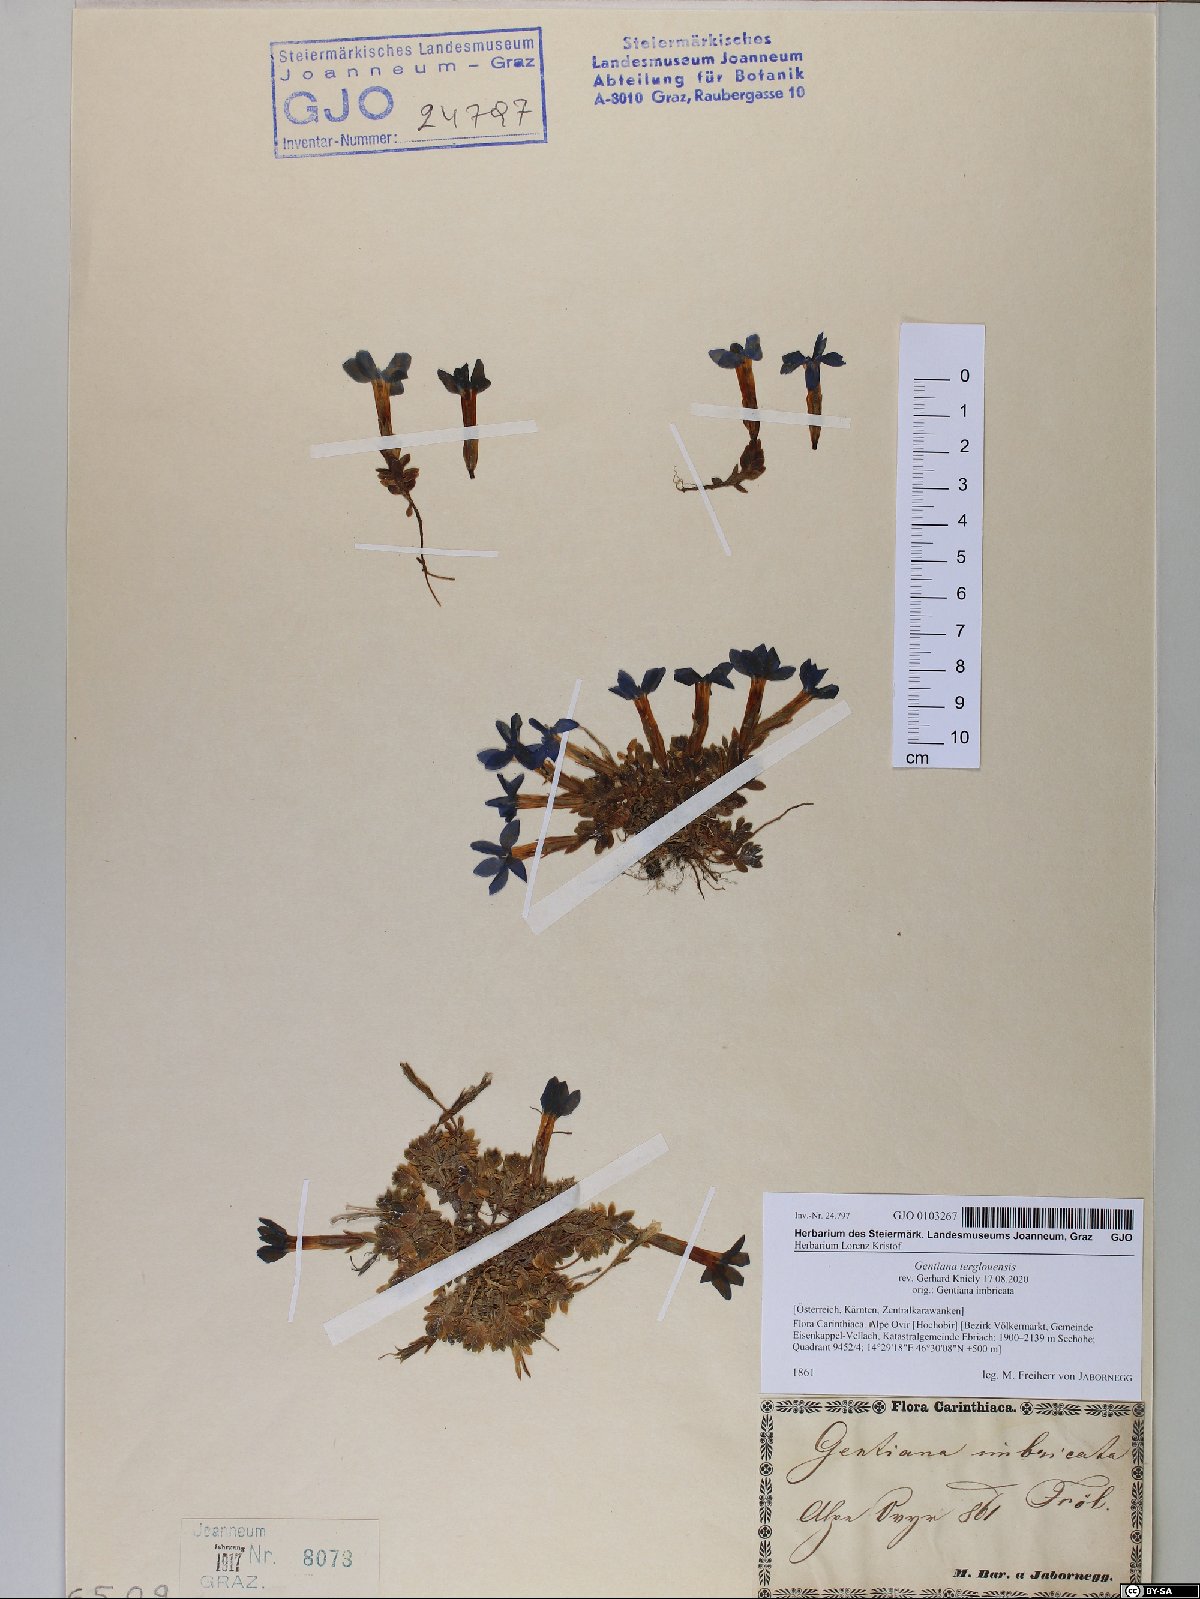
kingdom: Plantae
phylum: Tracheophyta
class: Magnoliopsida
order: Gentianales
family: Gentianaceae
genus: Gentiana
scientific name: Gentiana terglouensis
